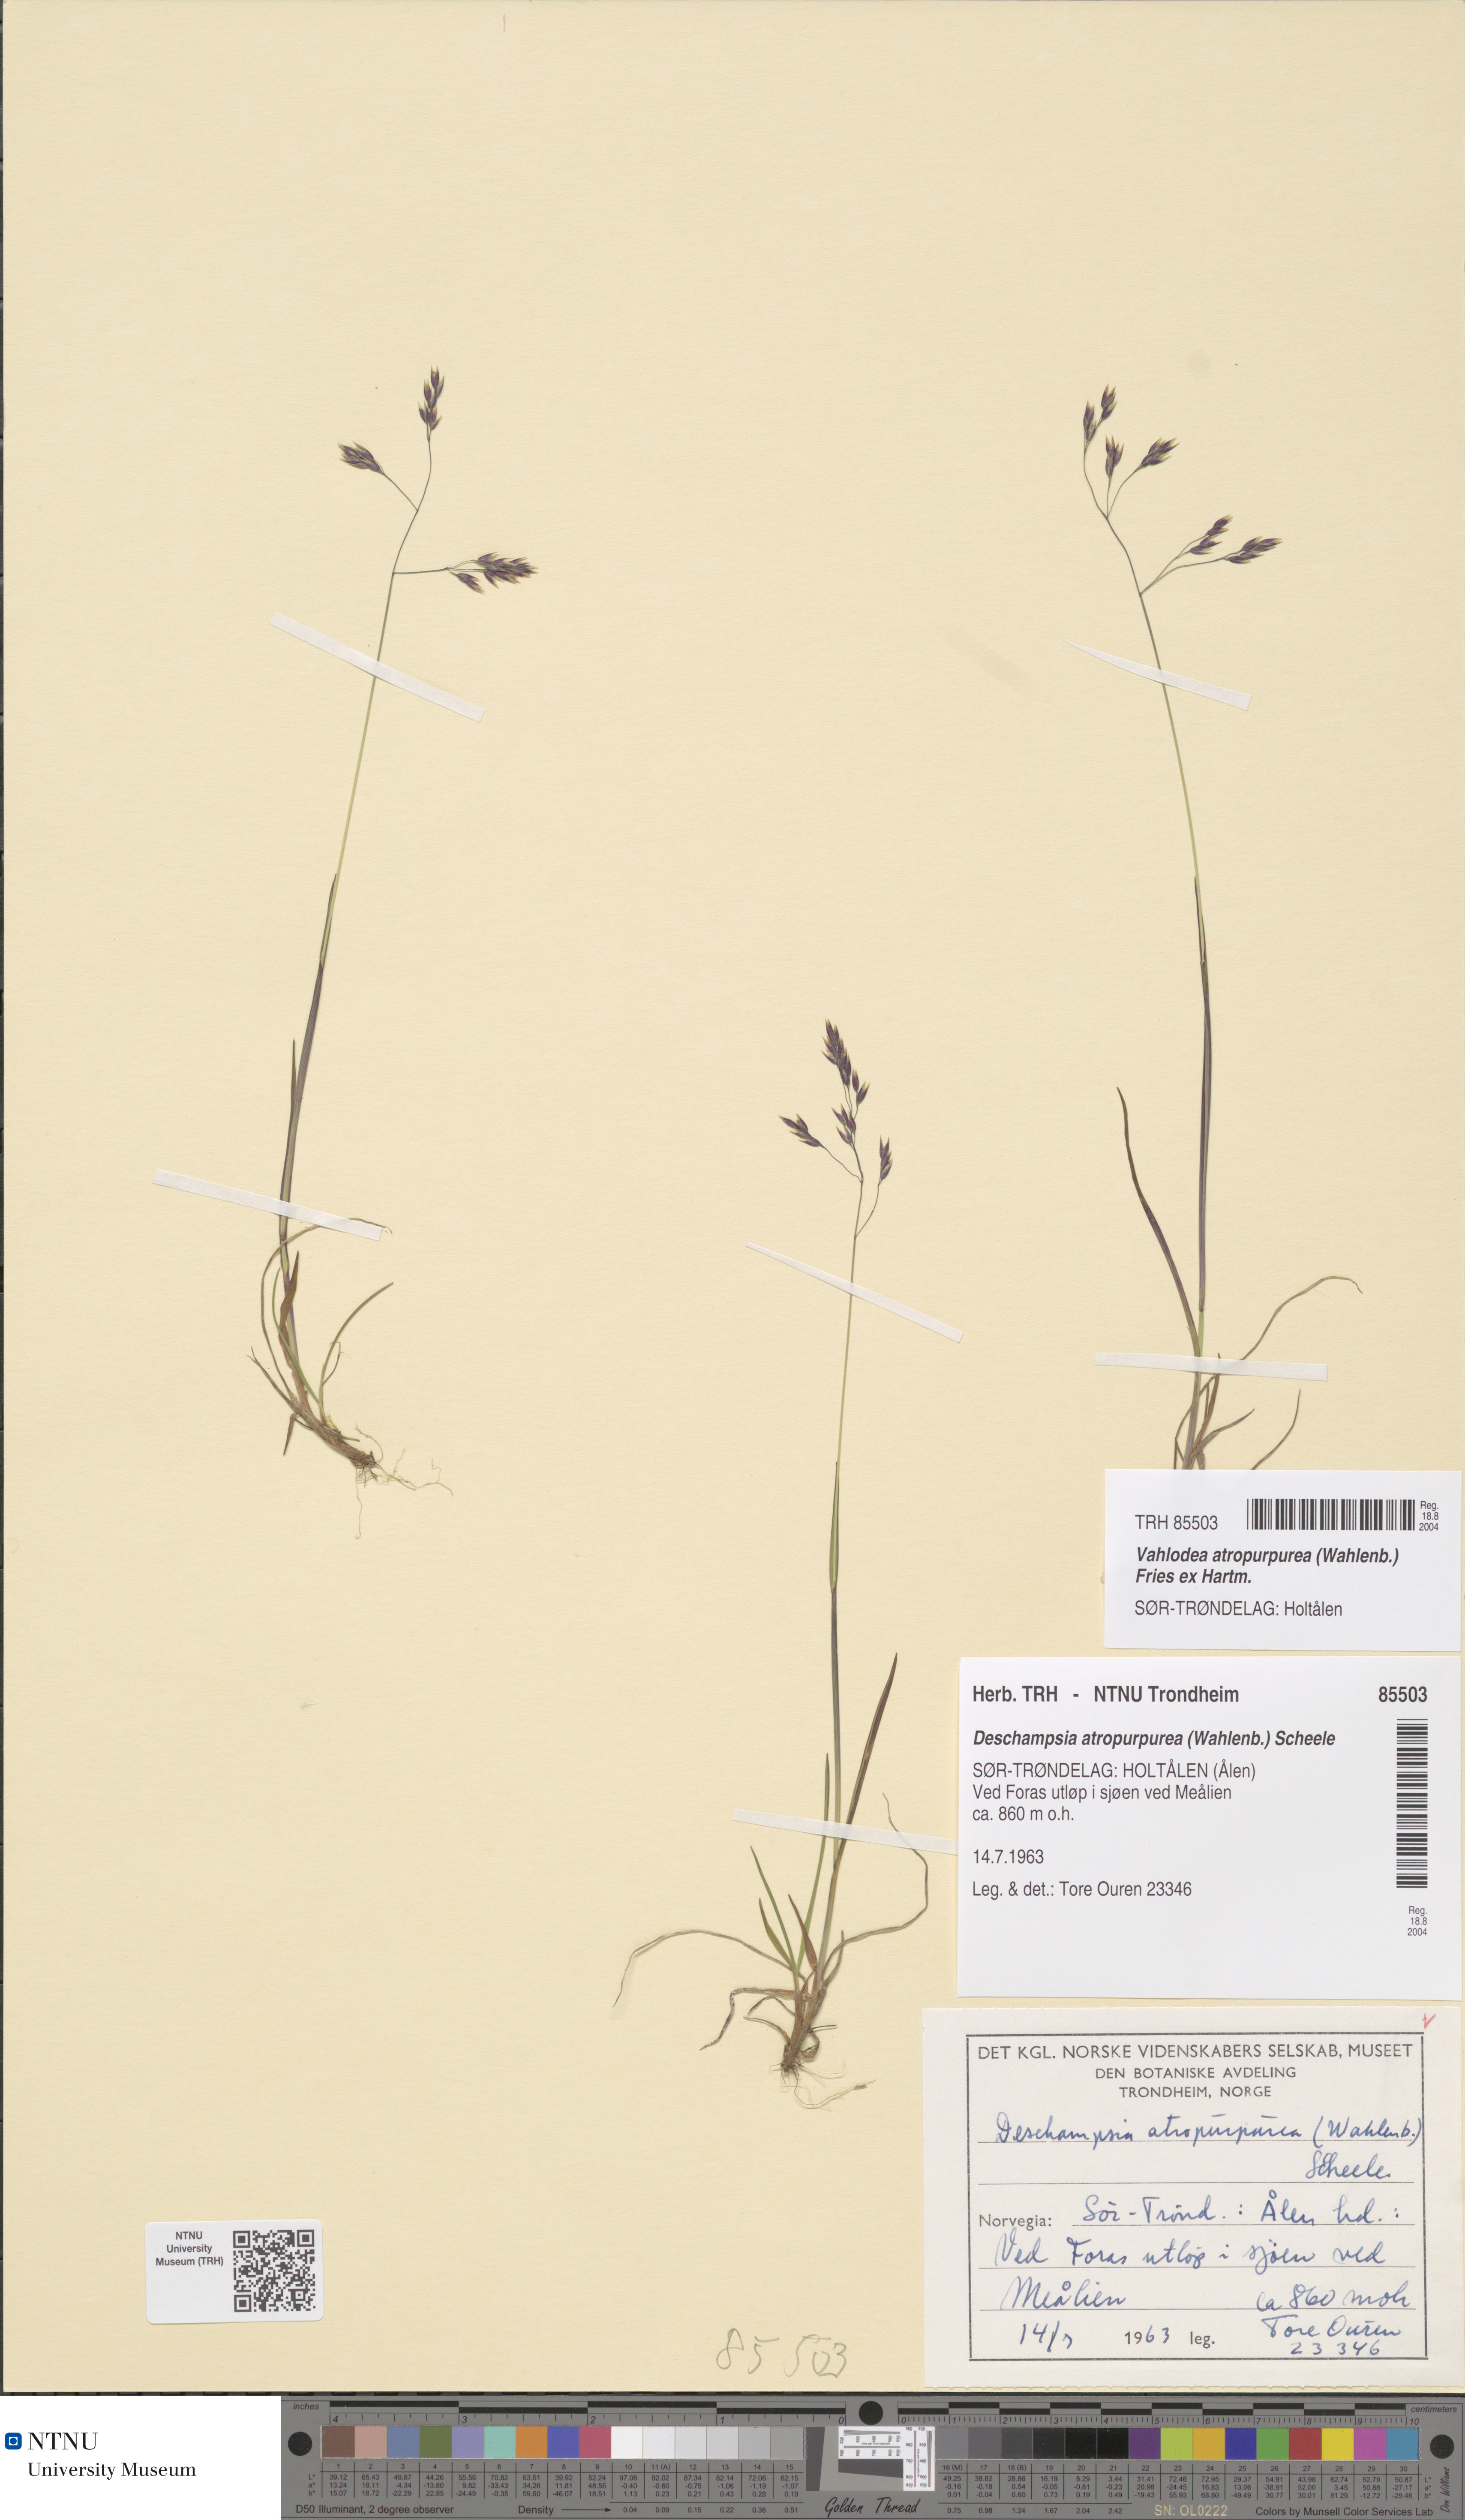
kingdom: Plantae
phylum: Tracheophyta
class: Liliopsida
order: Poales
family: Poaceae
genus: Vahlodea
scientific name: Vahlodea atropurpurea
